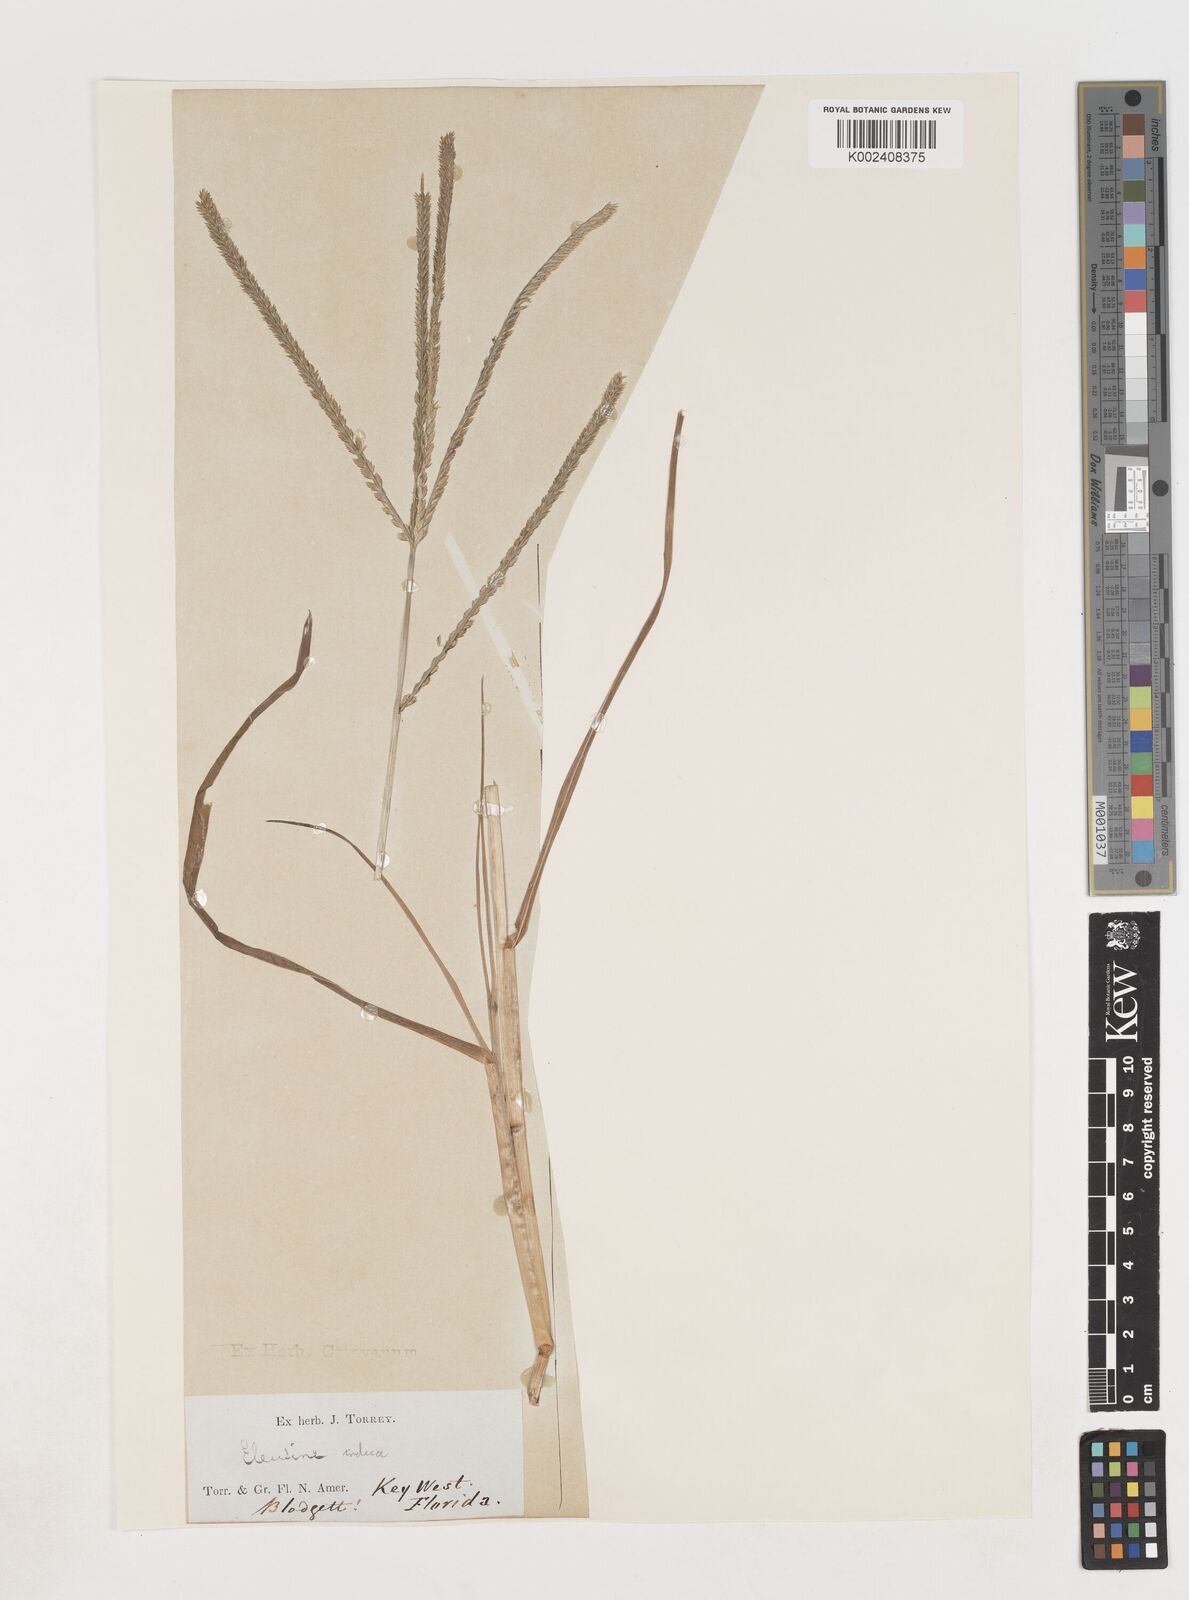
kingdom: Plantae
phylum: Tracheophyta
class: Liliopsida
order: Poales
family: Poaceae
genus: Eleusine
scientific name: Eleusine indica
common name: Yard-grass
